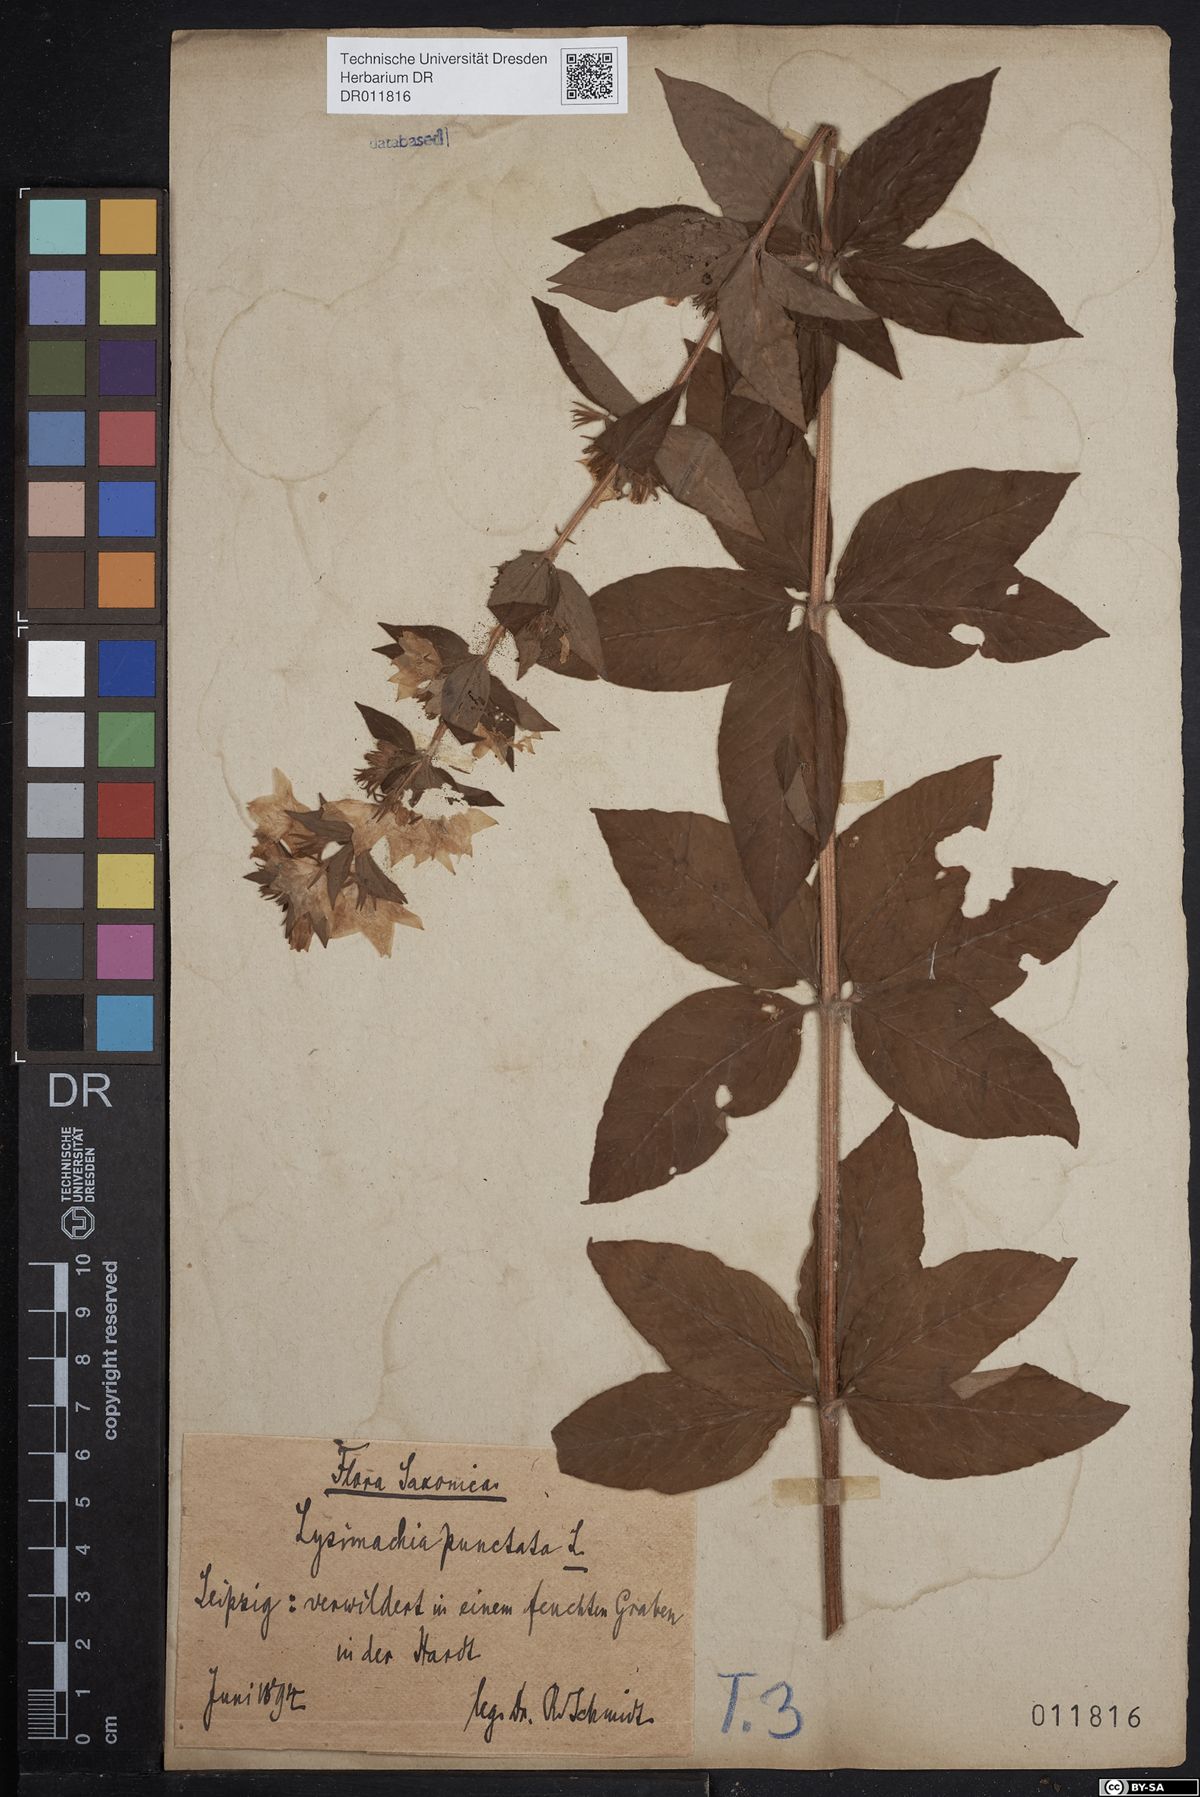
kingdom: Plantae
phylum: Tracheophyta
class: Magnoliopsida
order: Ericales
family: Primulaceae
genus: Lysimachia
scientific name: Lysimachia punctata
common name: Dotted loosestrife
